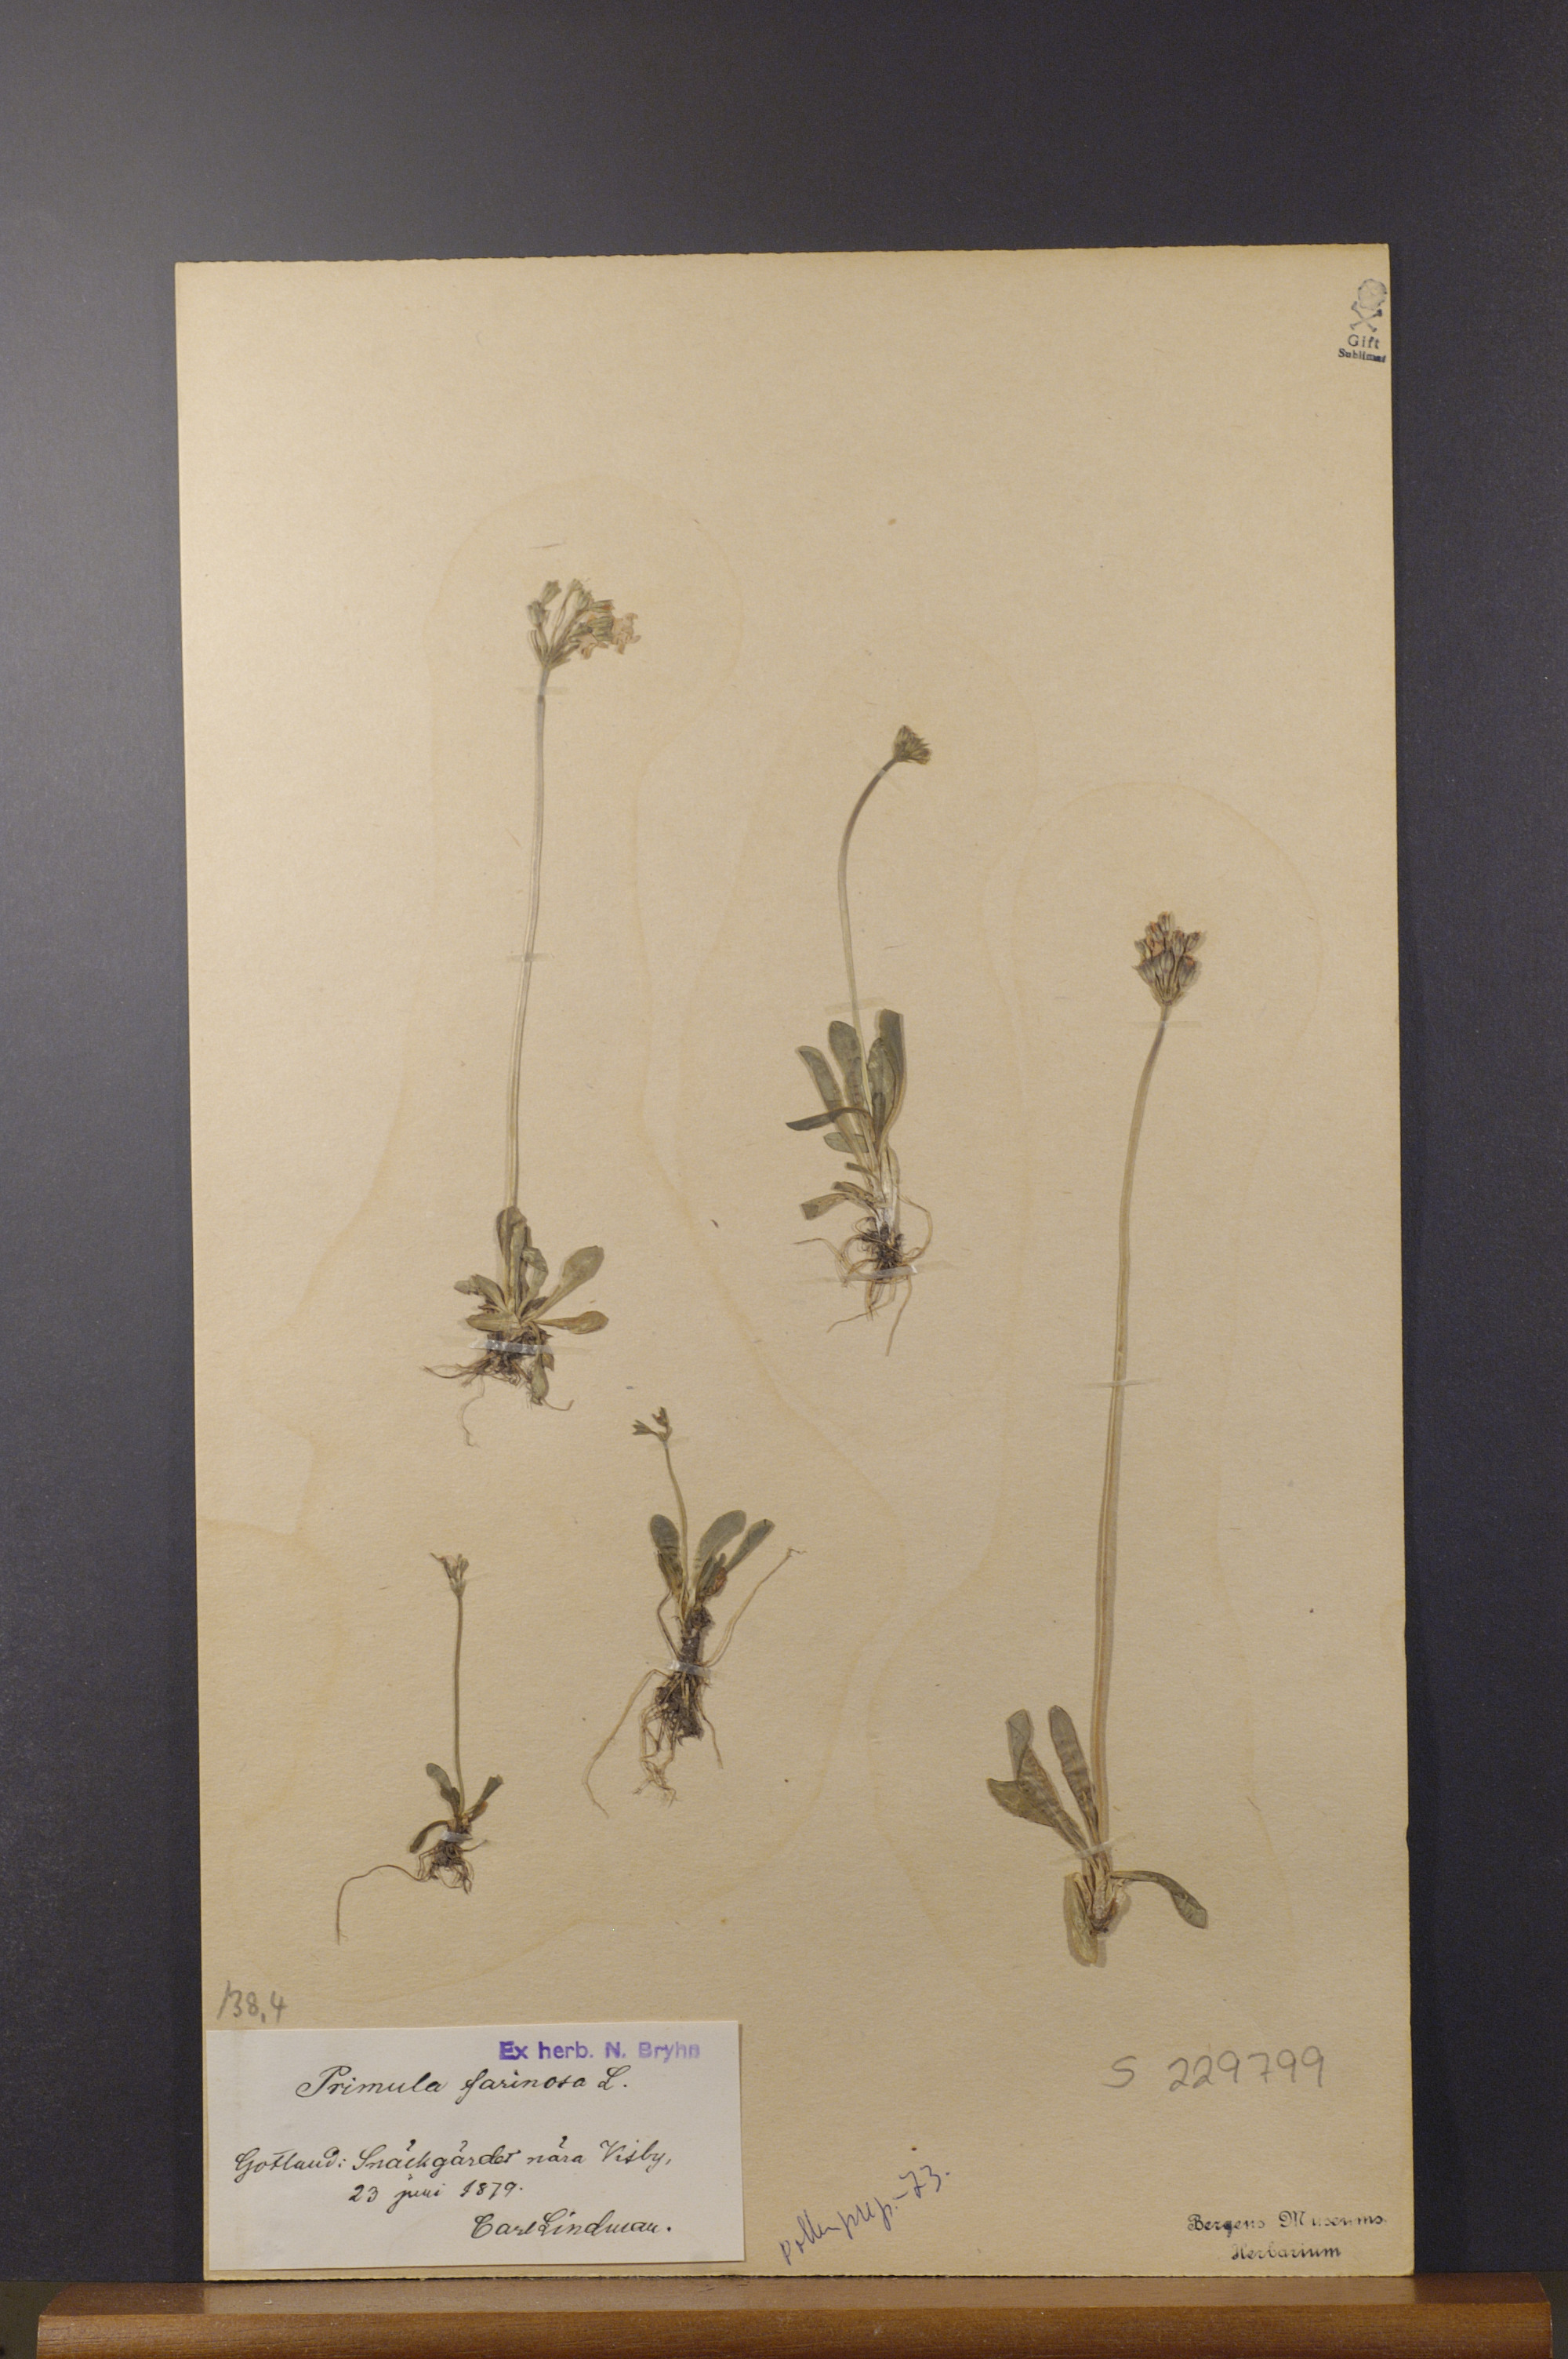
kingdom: Plantae
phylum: Tracheophyta
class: Magnoliopsida
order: Ericales
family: Primulaceae
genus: Primula
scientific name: Primula farinosa
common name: Bird's-eye primrose
